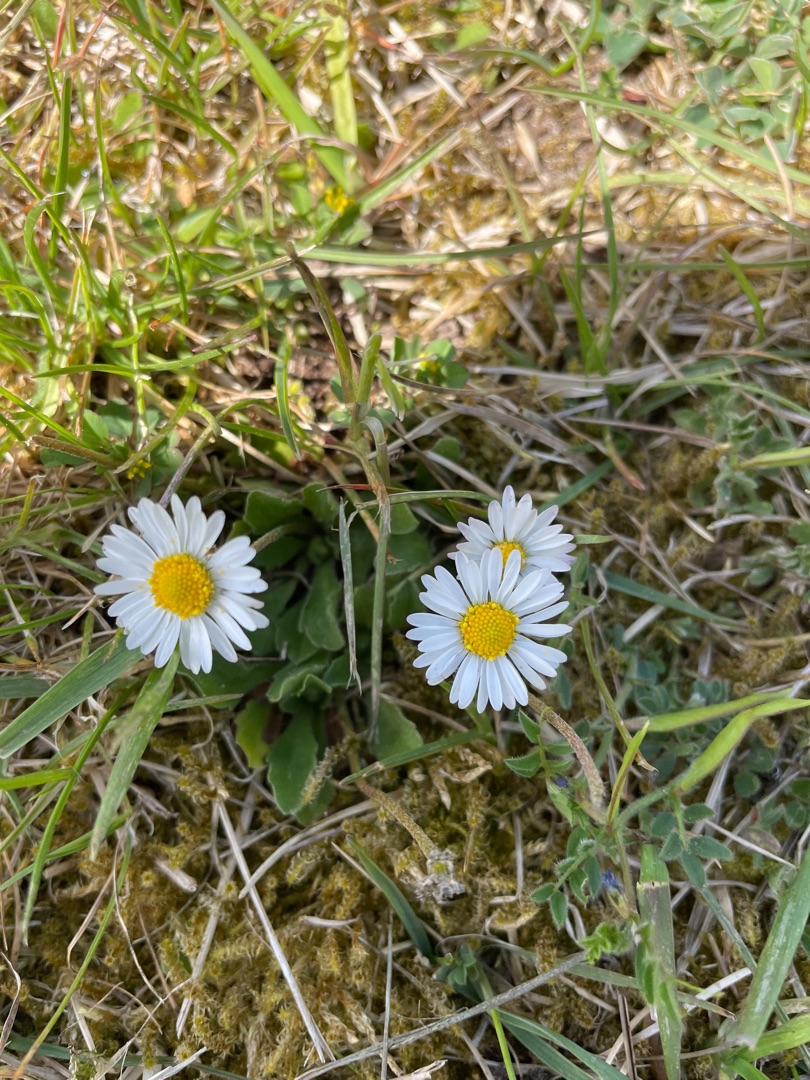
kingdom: Plantae
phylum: Tracheophyta
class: Magnoliopsida
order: Asterales
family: Asteraceae
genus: Bellis
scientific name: Bellis perennis
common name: Tusindfryd
